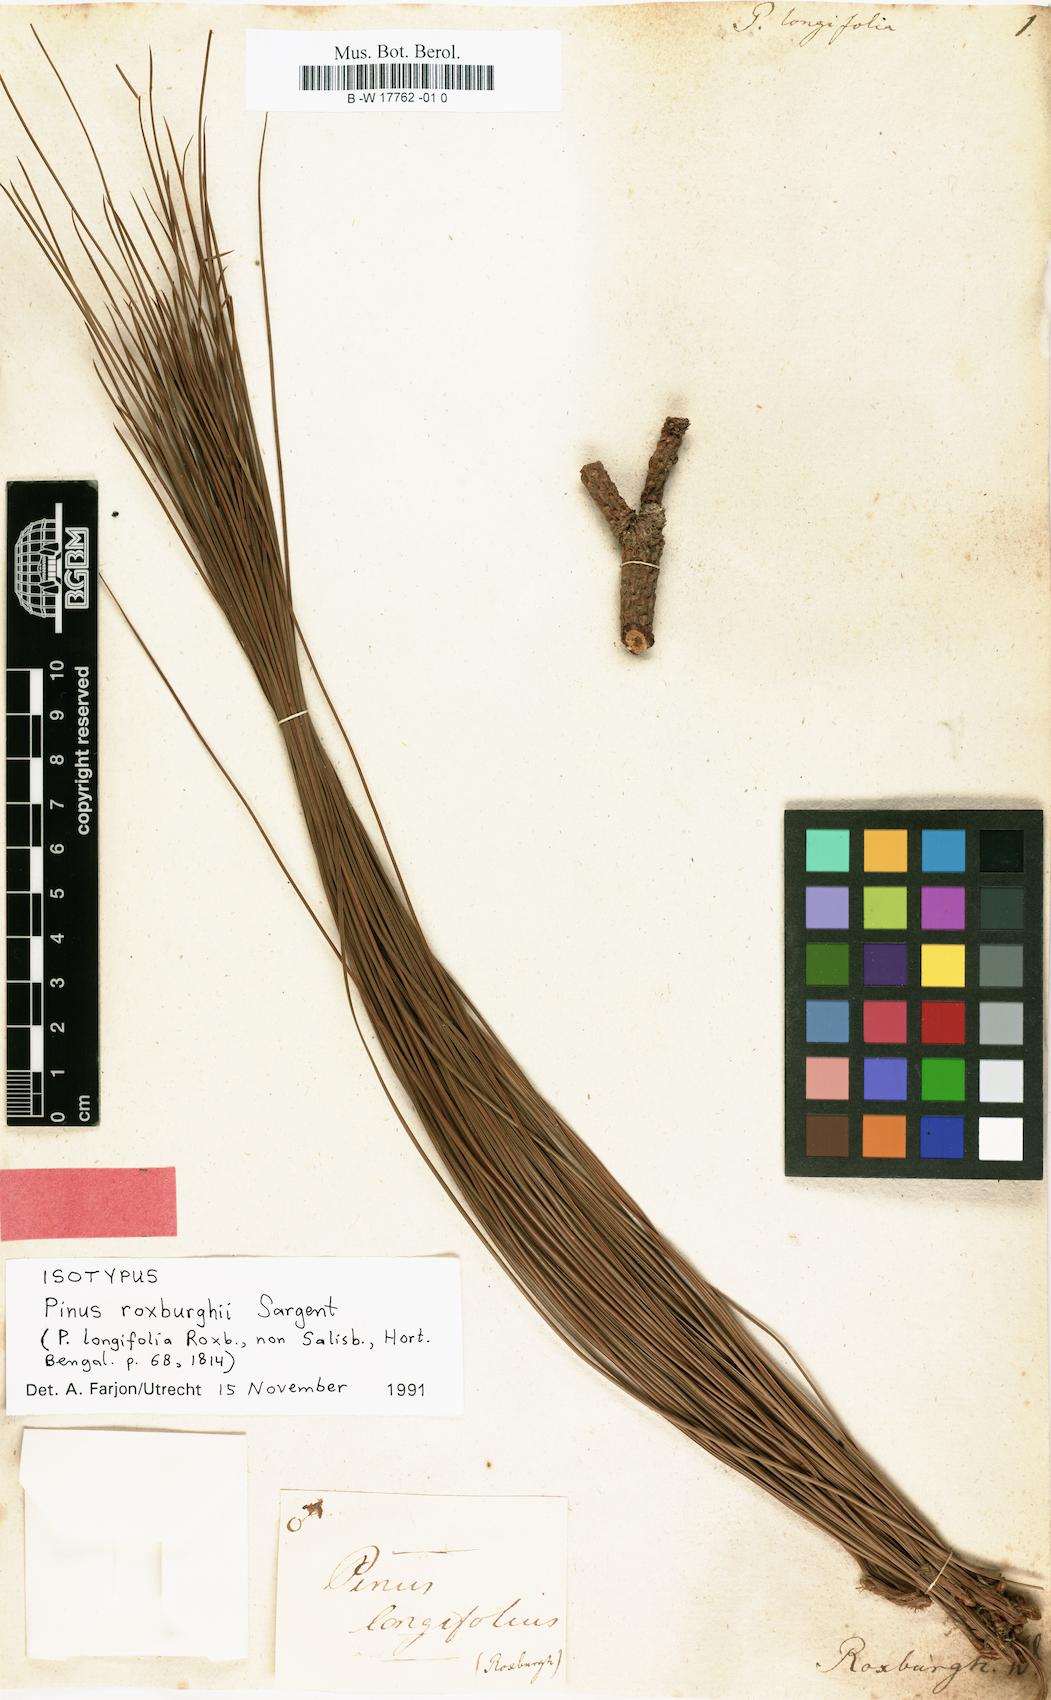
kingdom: Plantae
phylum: Tracheophyta
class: Pinopsida
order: Pinales
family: Pinaceae
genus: Pinus
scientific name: Pinus palustris
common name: Longleaf pine
